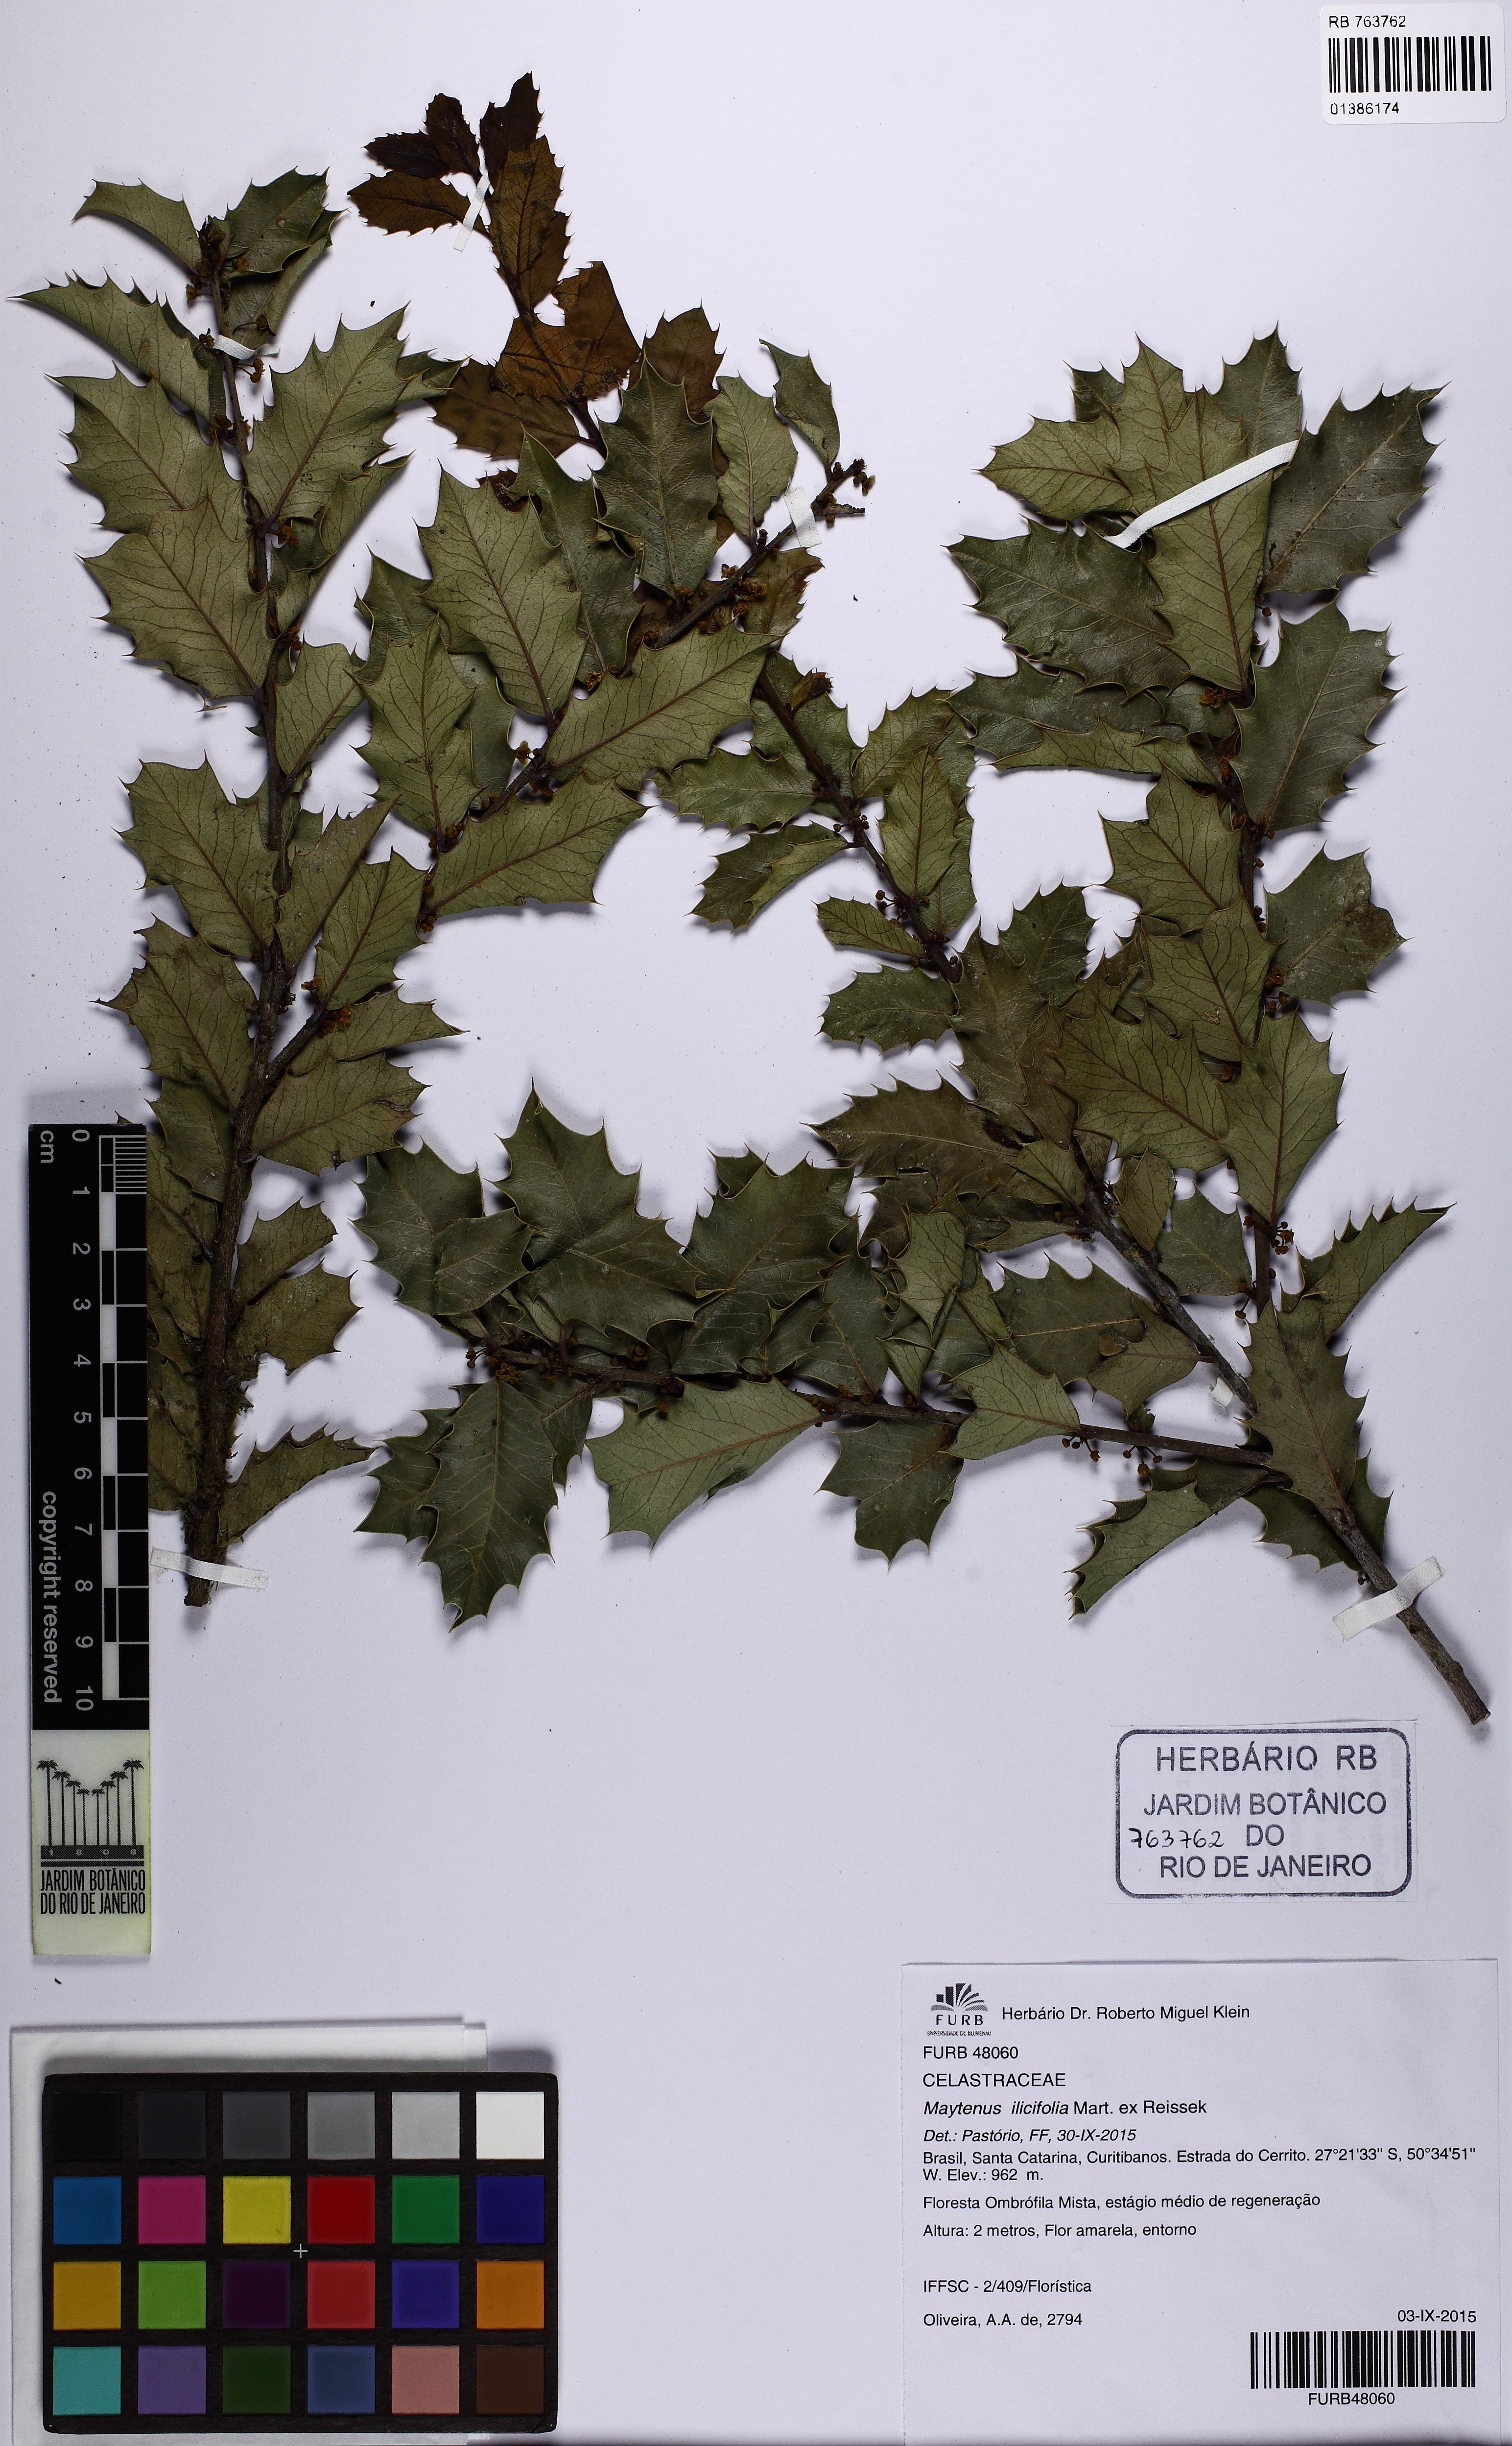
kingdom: Plantae
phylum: Tracheophyta
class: Magnoliopsida
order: Celastrales
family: Celastraceae
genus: Monteverdia
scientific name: Monteverdia ilicifolia
